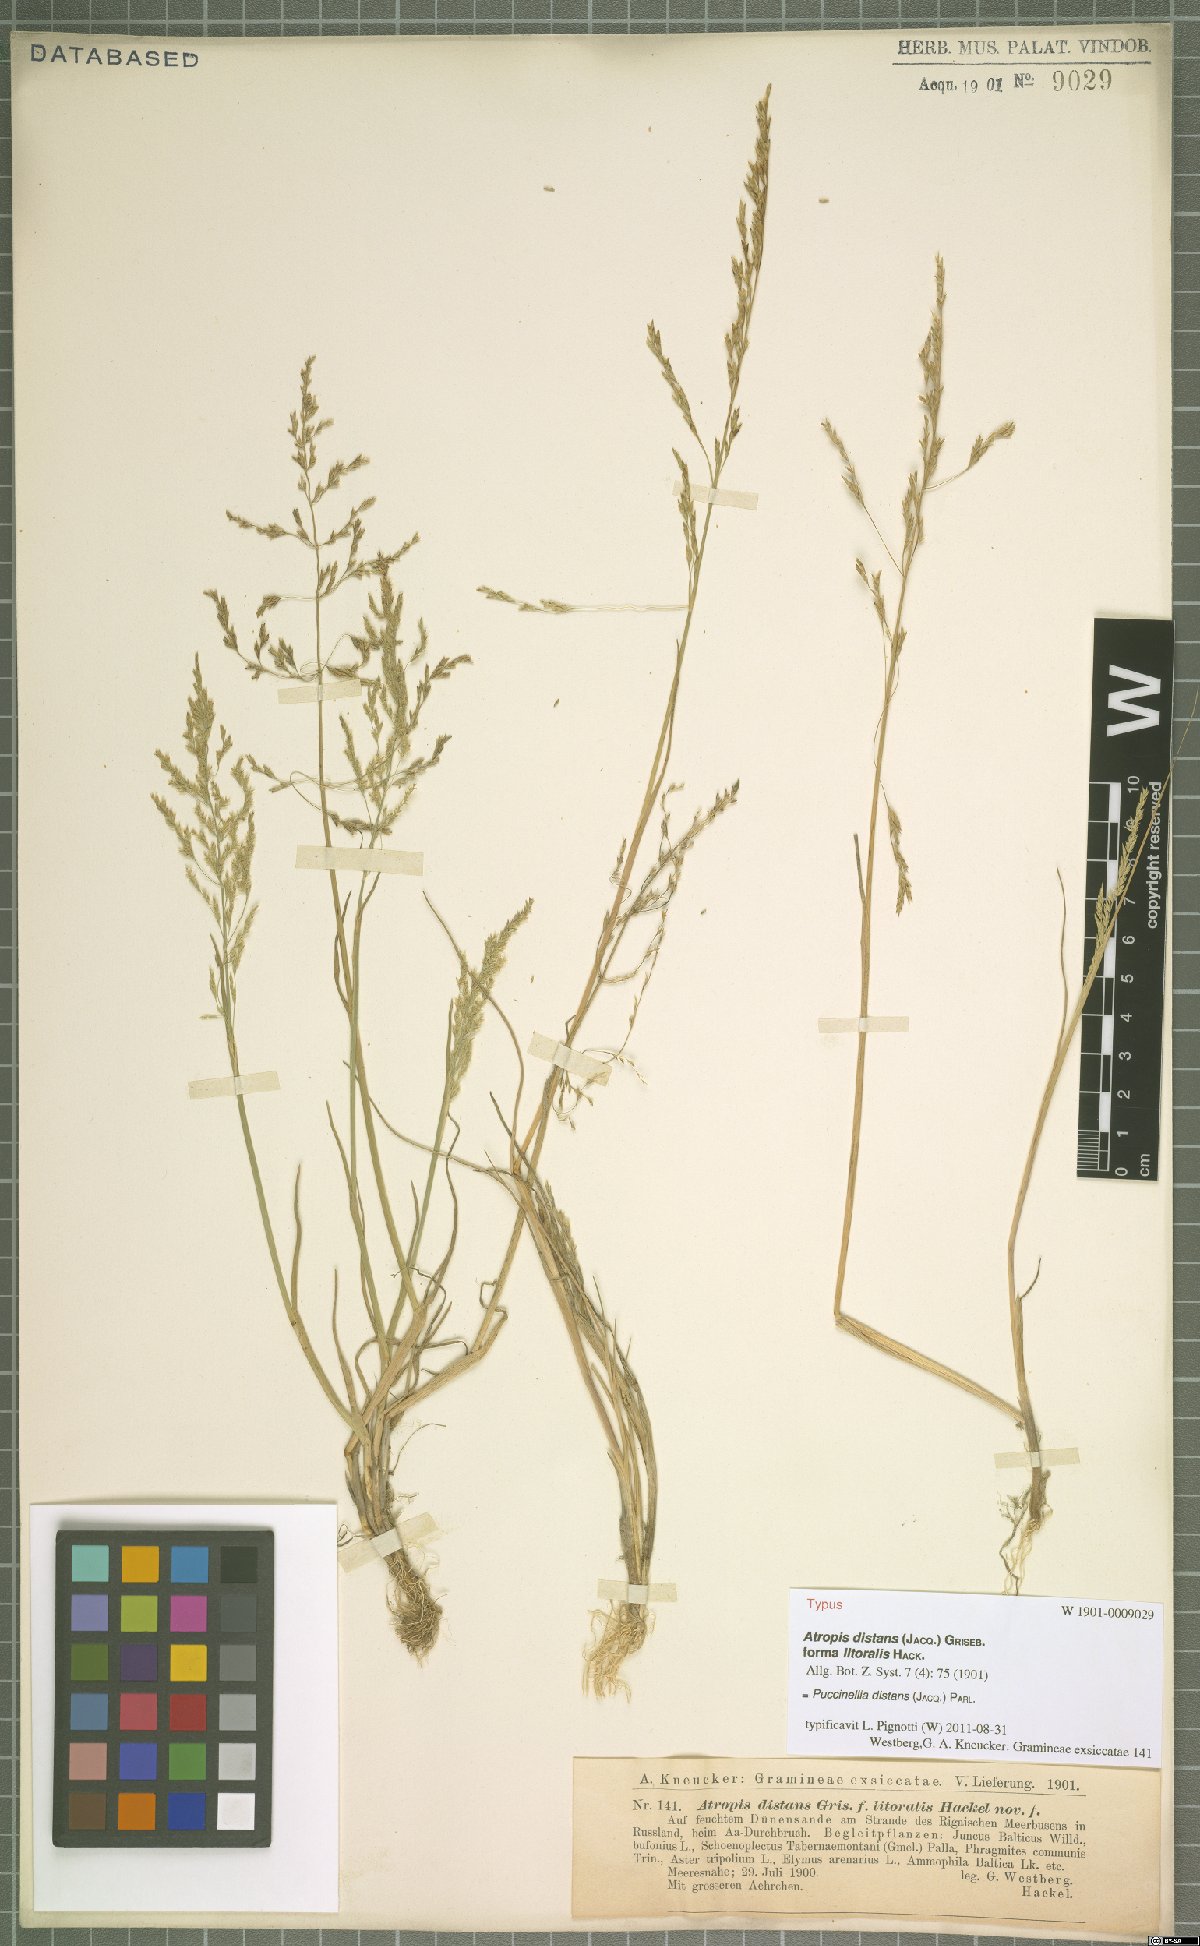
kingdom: Plantae
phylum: Tracheophyta
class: Liliopsida
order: Poales
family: Poaceae
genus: Puccinellia
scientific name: Puccinellia distans
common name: Weeping alkaligrass
